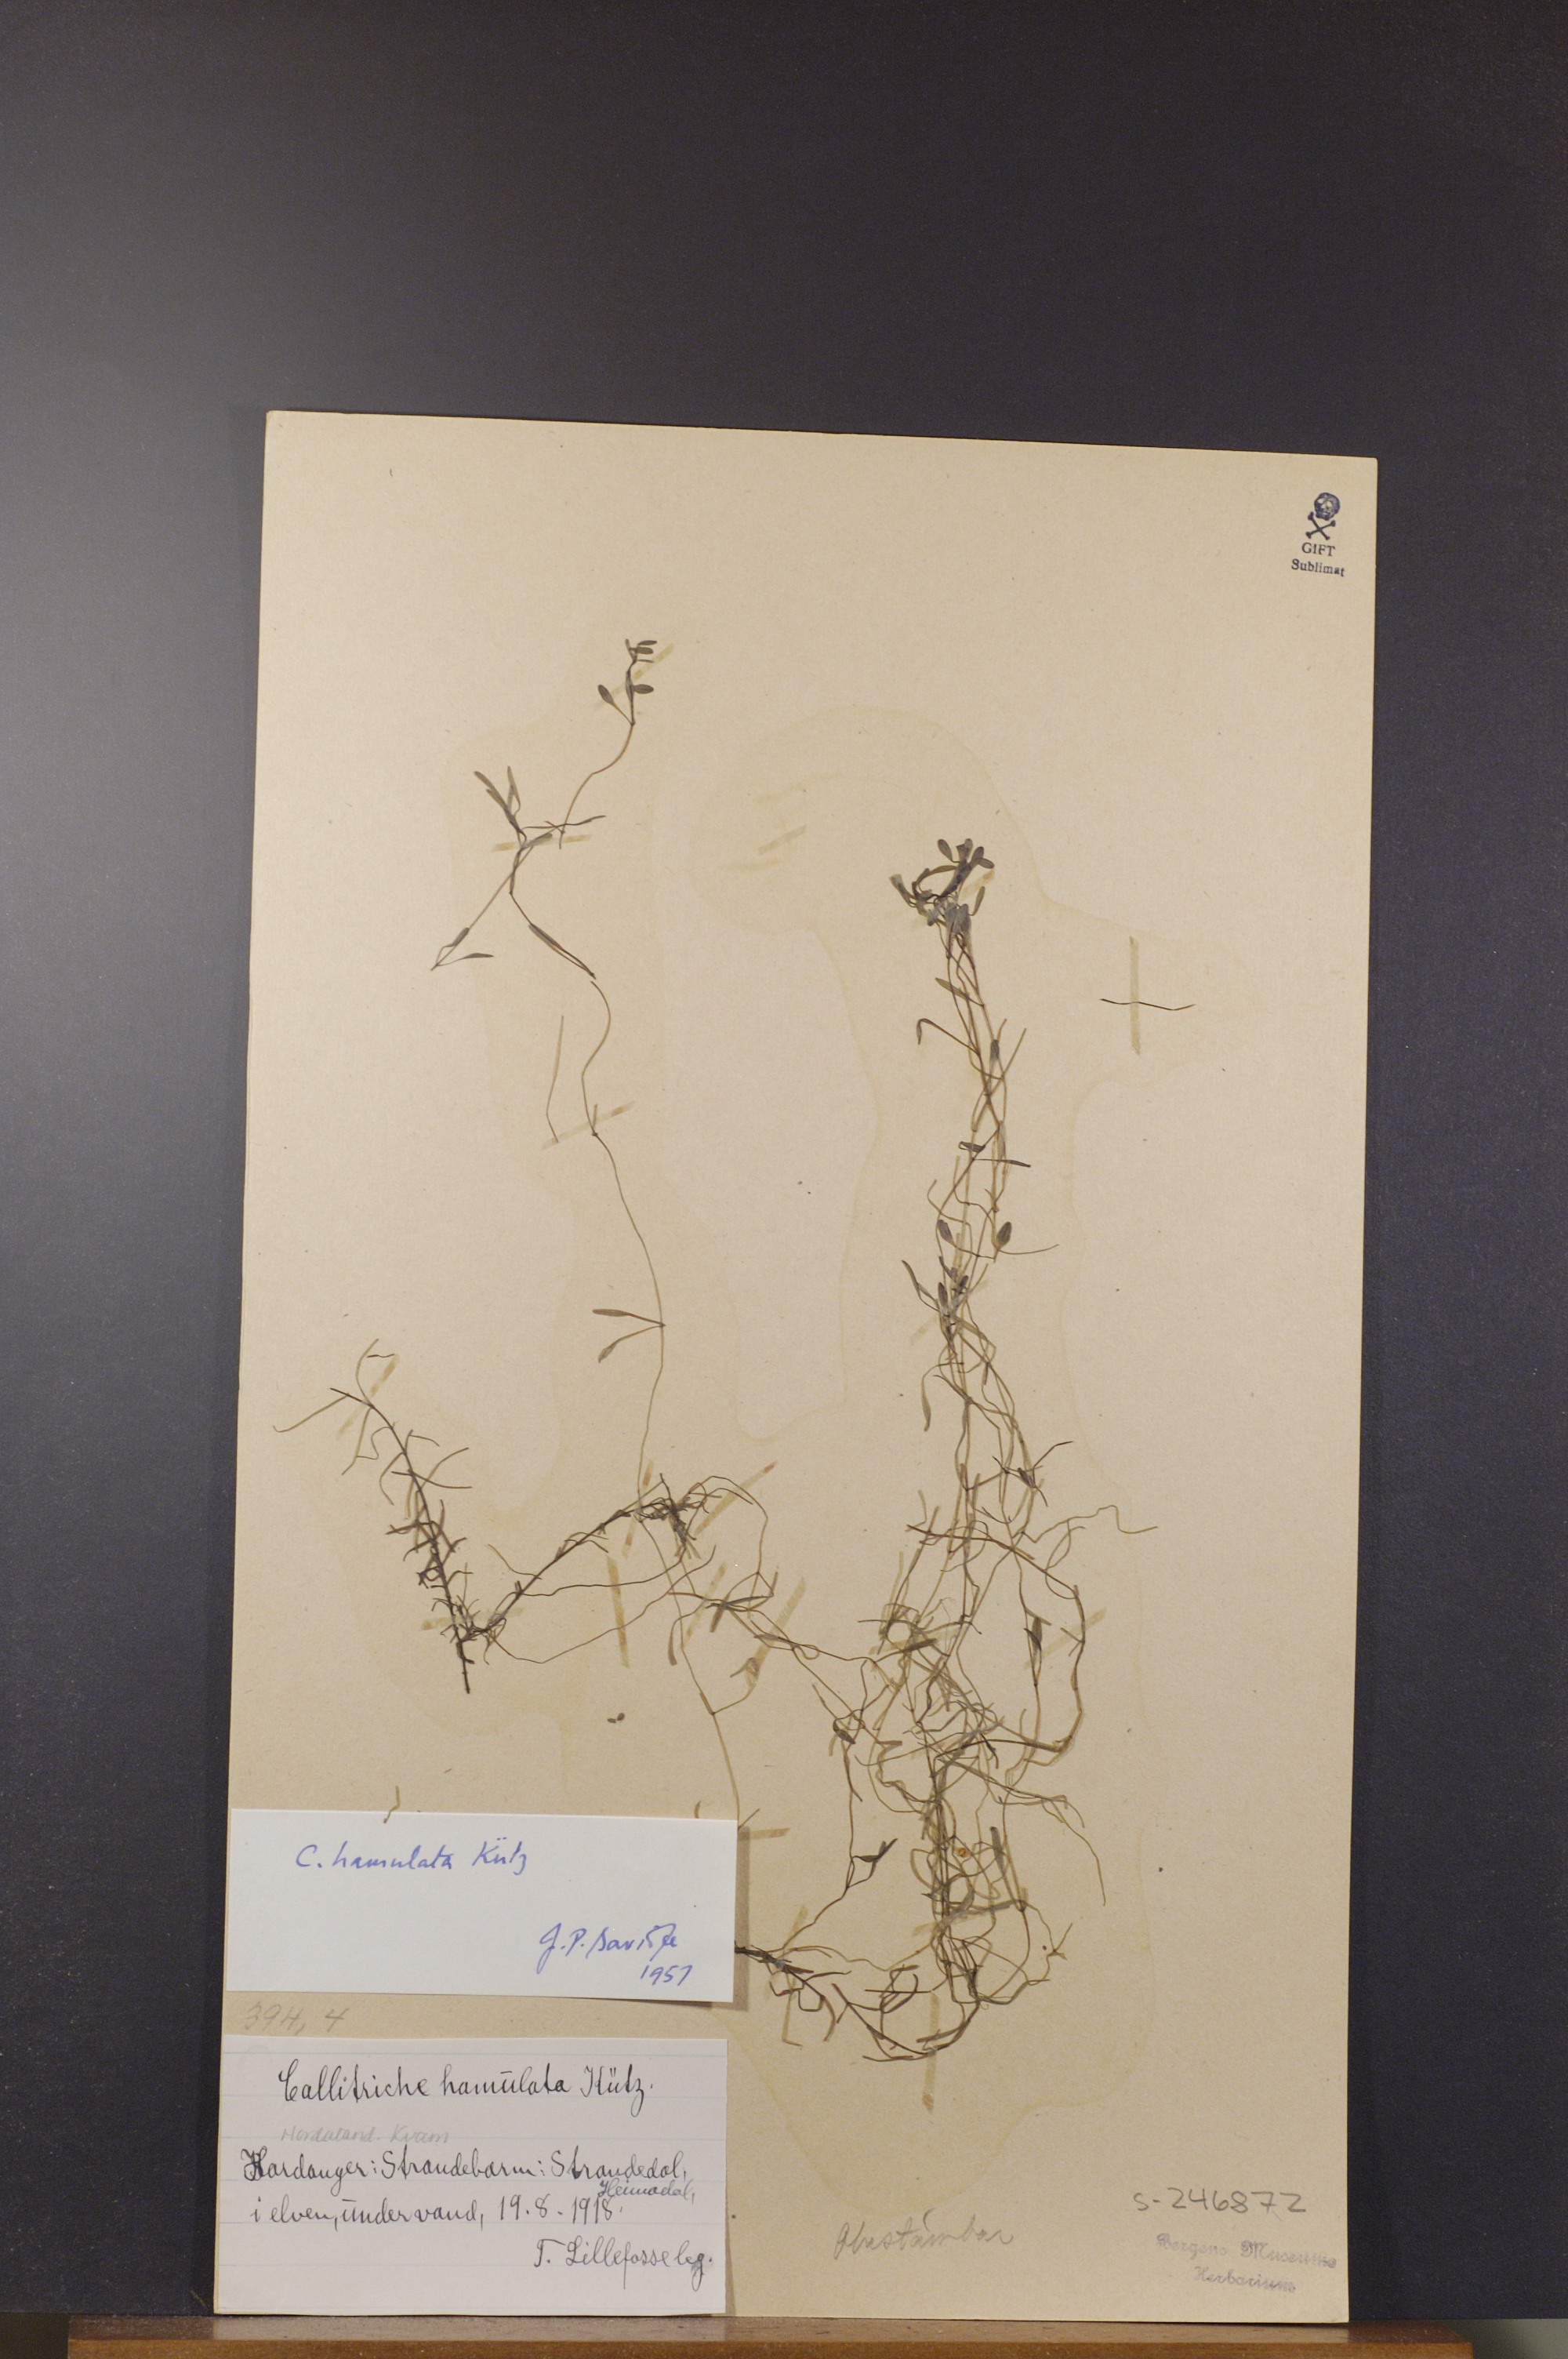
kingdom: Plantae
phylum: Tracheophyta
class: Magnoliopsida
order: Lamiales
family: Plantaginaceae
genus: Callitriche
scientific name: Callitriche hamulata
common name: Intermediate water-starwort
